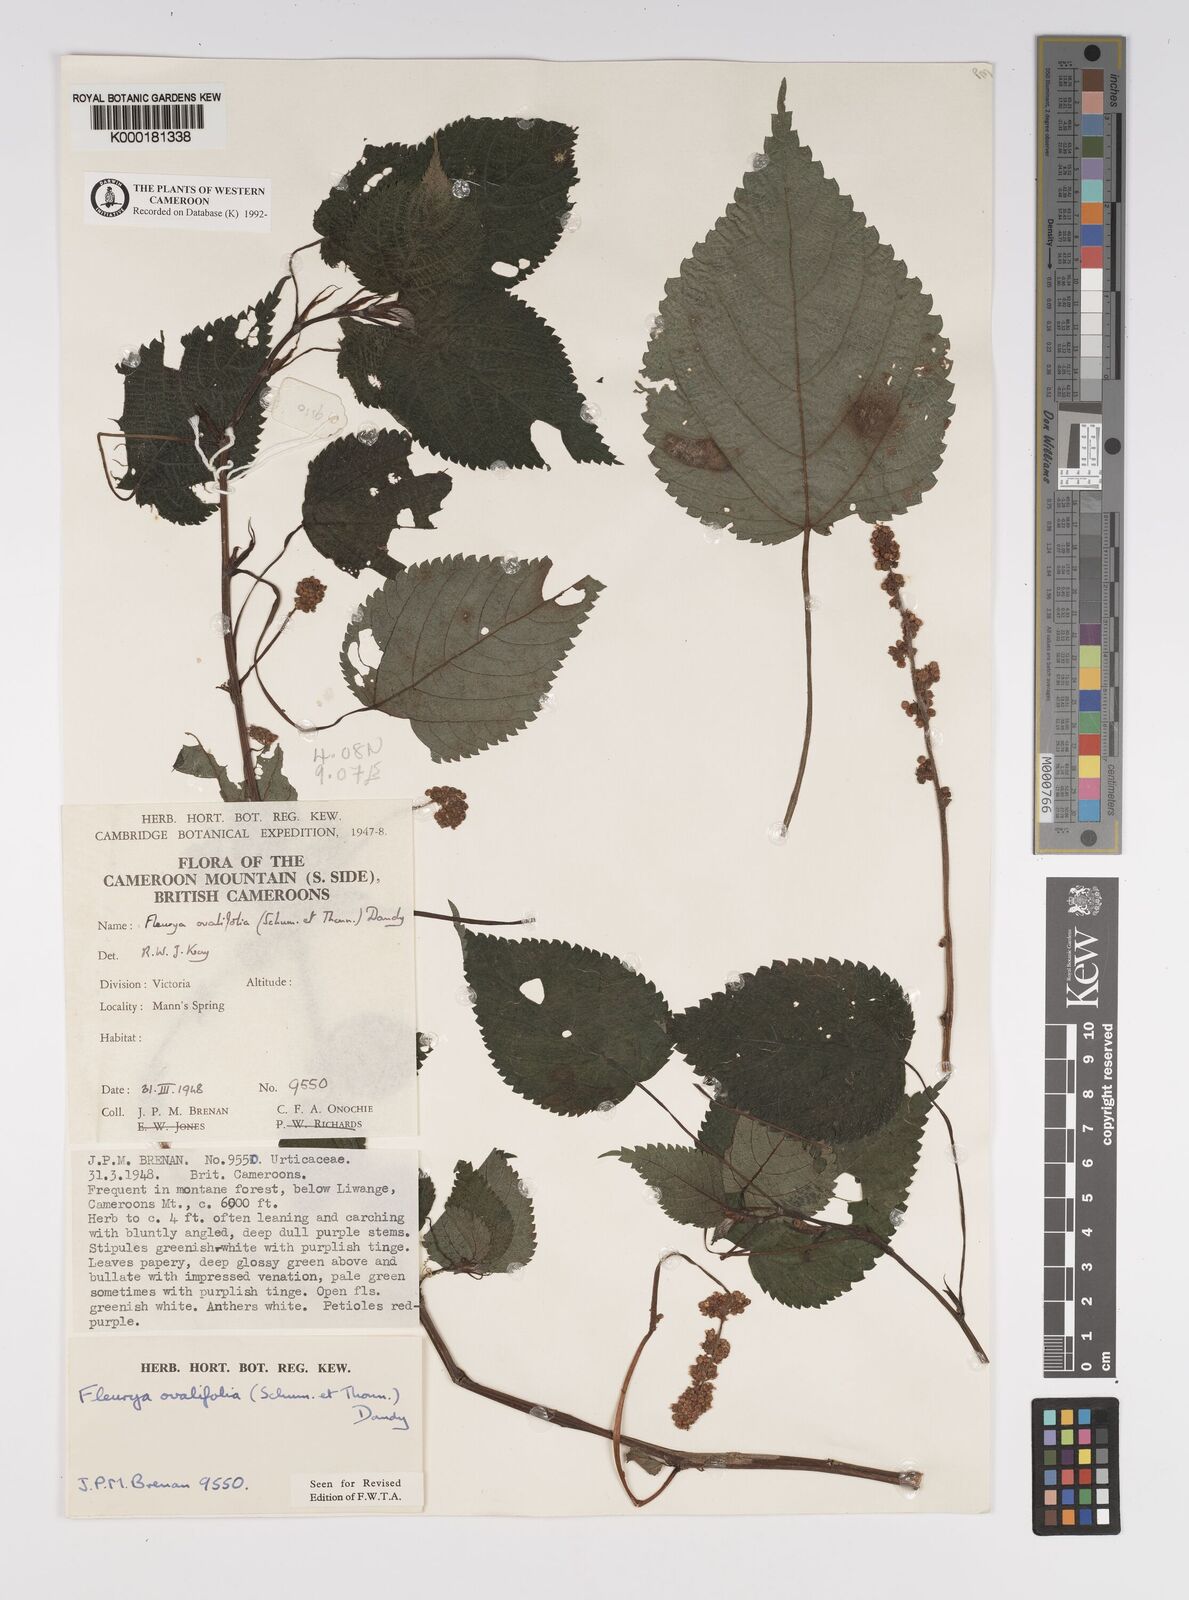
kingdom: Plantae
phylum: Tracheophyta
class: Magnoliopsida
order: Rosales
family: Urticaceae
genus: Laportea
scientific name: Laportea ovalifolia
